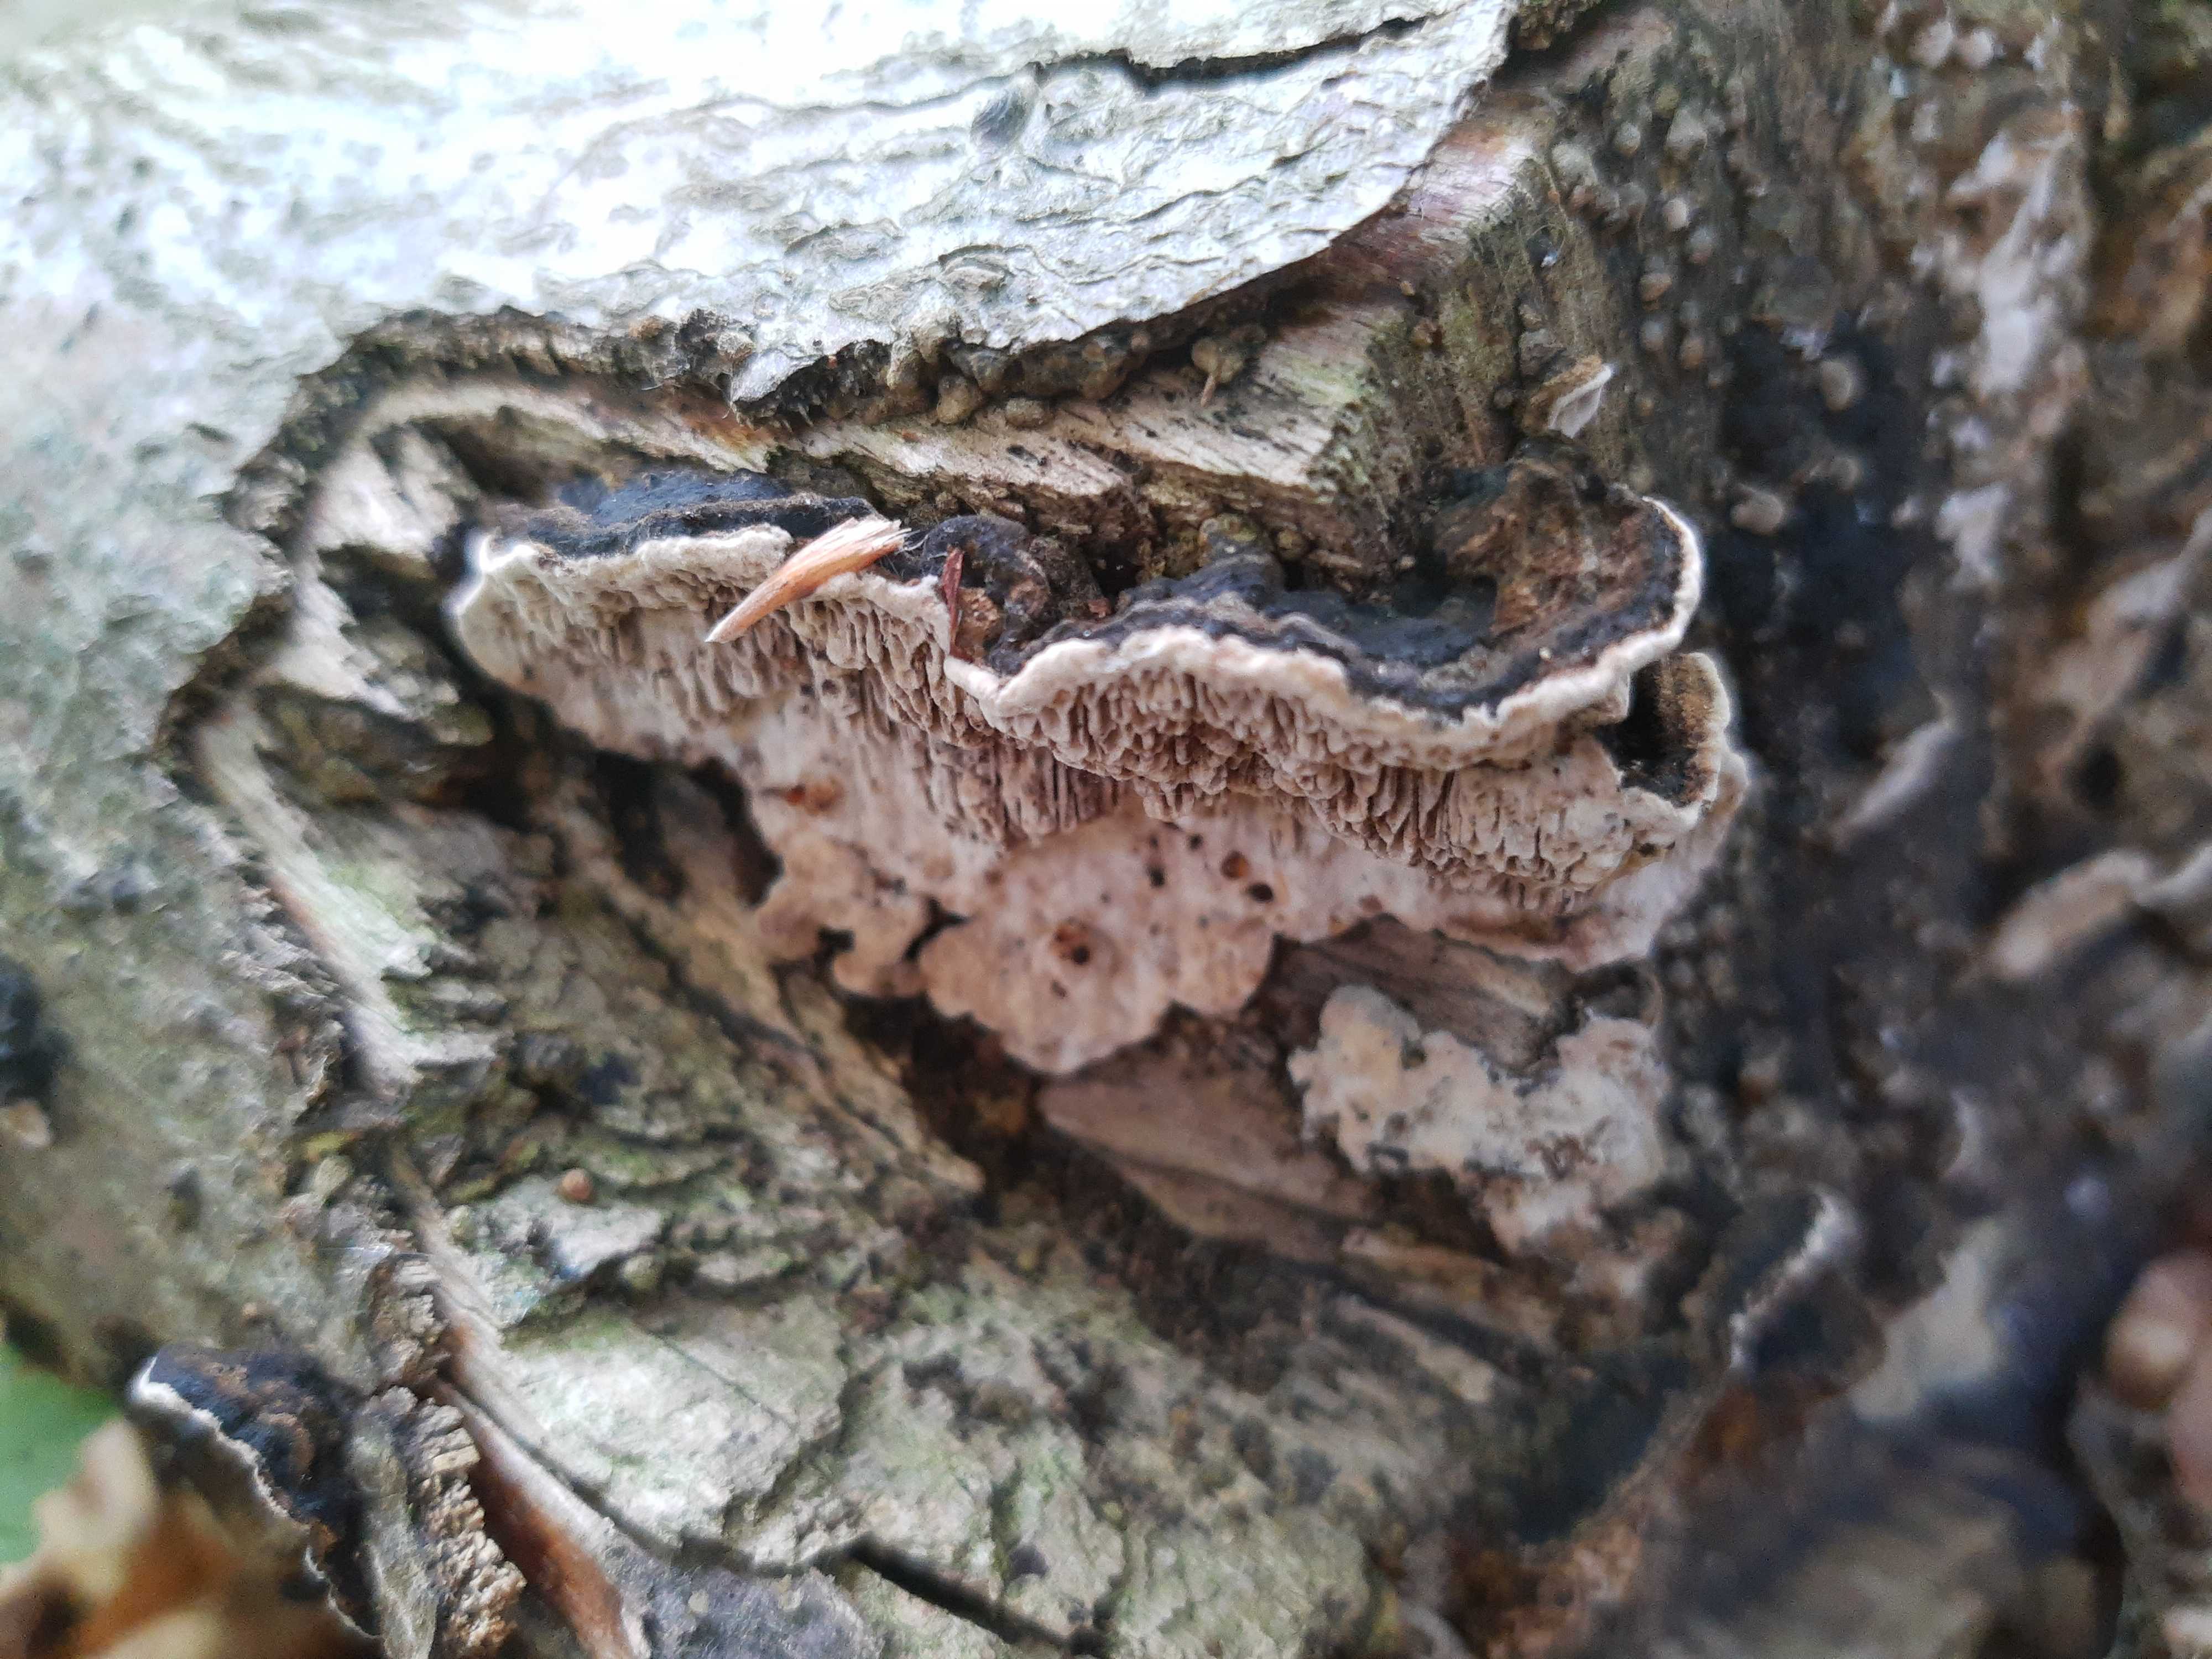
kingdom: Fungi
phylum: Basidiomycota
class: Agaricomycetes
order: Polyporales
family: Polyporaceae
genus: Podofomes
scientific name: Podofomes mollis
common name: blød begporesvamp
